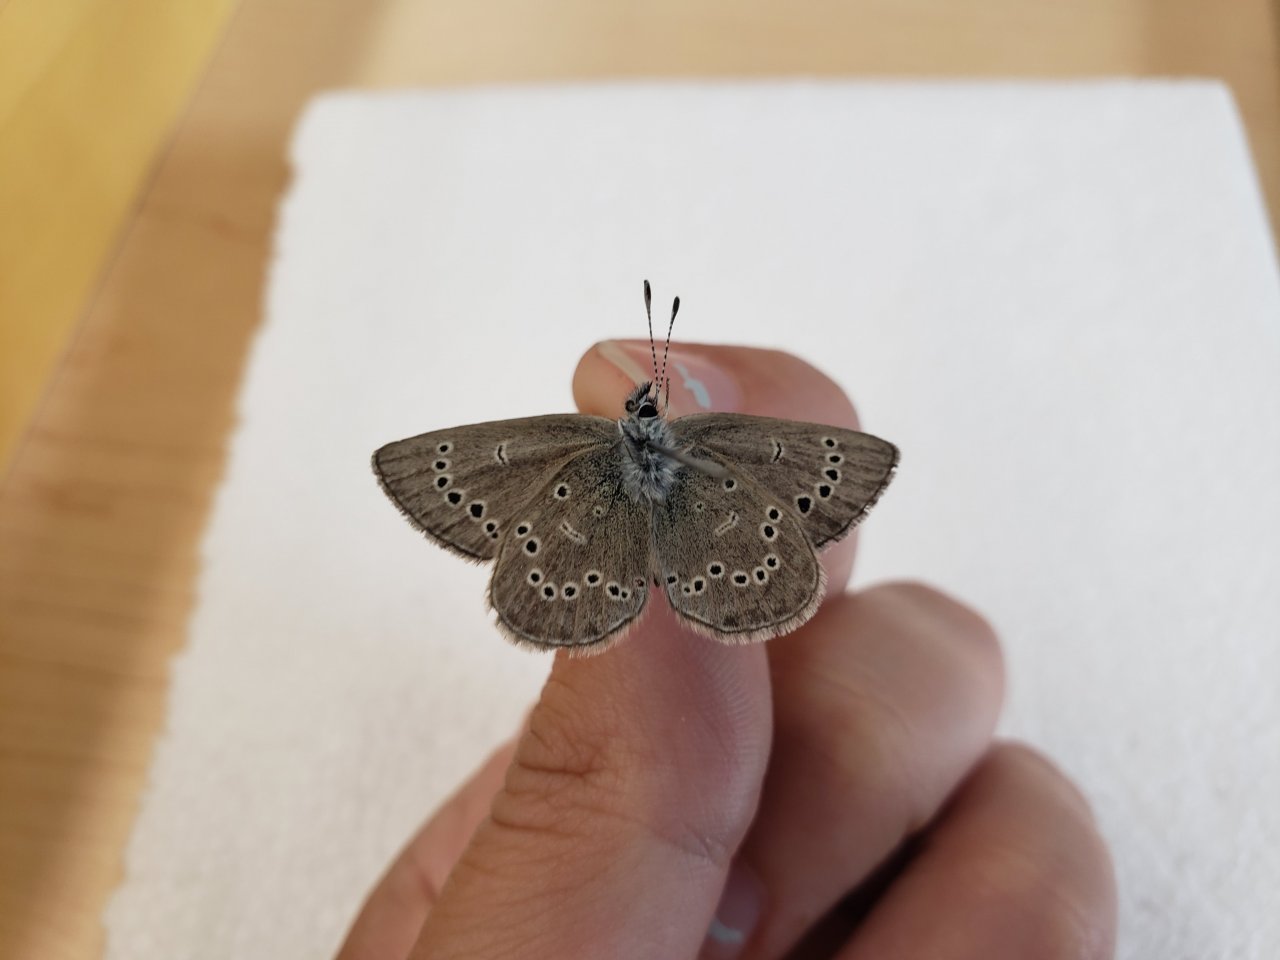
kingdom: Animalia
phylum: Arthropoda
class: Insecta
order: Lepidoptera
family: Lycaenidae
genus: Glaucopsyche
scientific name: Glaucopsyche lygdamus
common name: Silvery Blue
